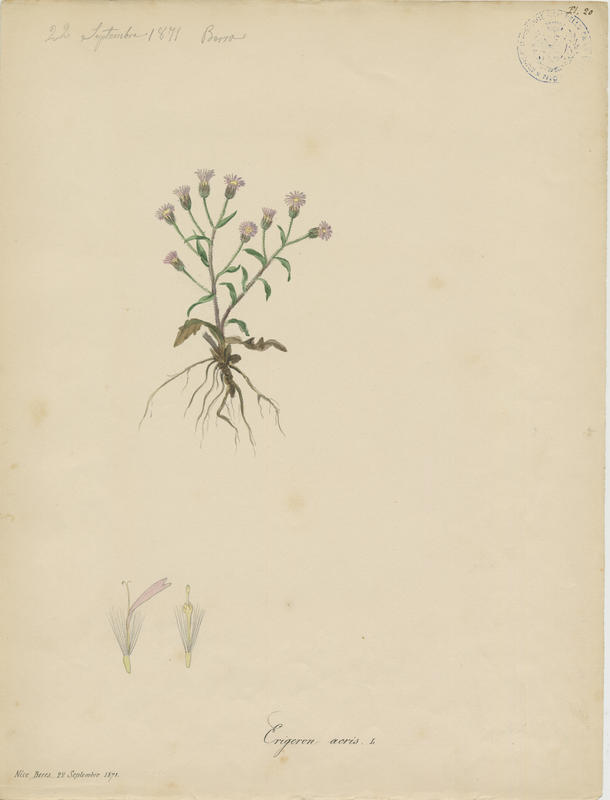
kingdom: Plantae
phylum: Tracheophyta
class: Magnoliopsida
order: Asterales
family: Asteraceae
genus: Erigeron
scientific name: Erigeron acer
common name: Blue fleabane
